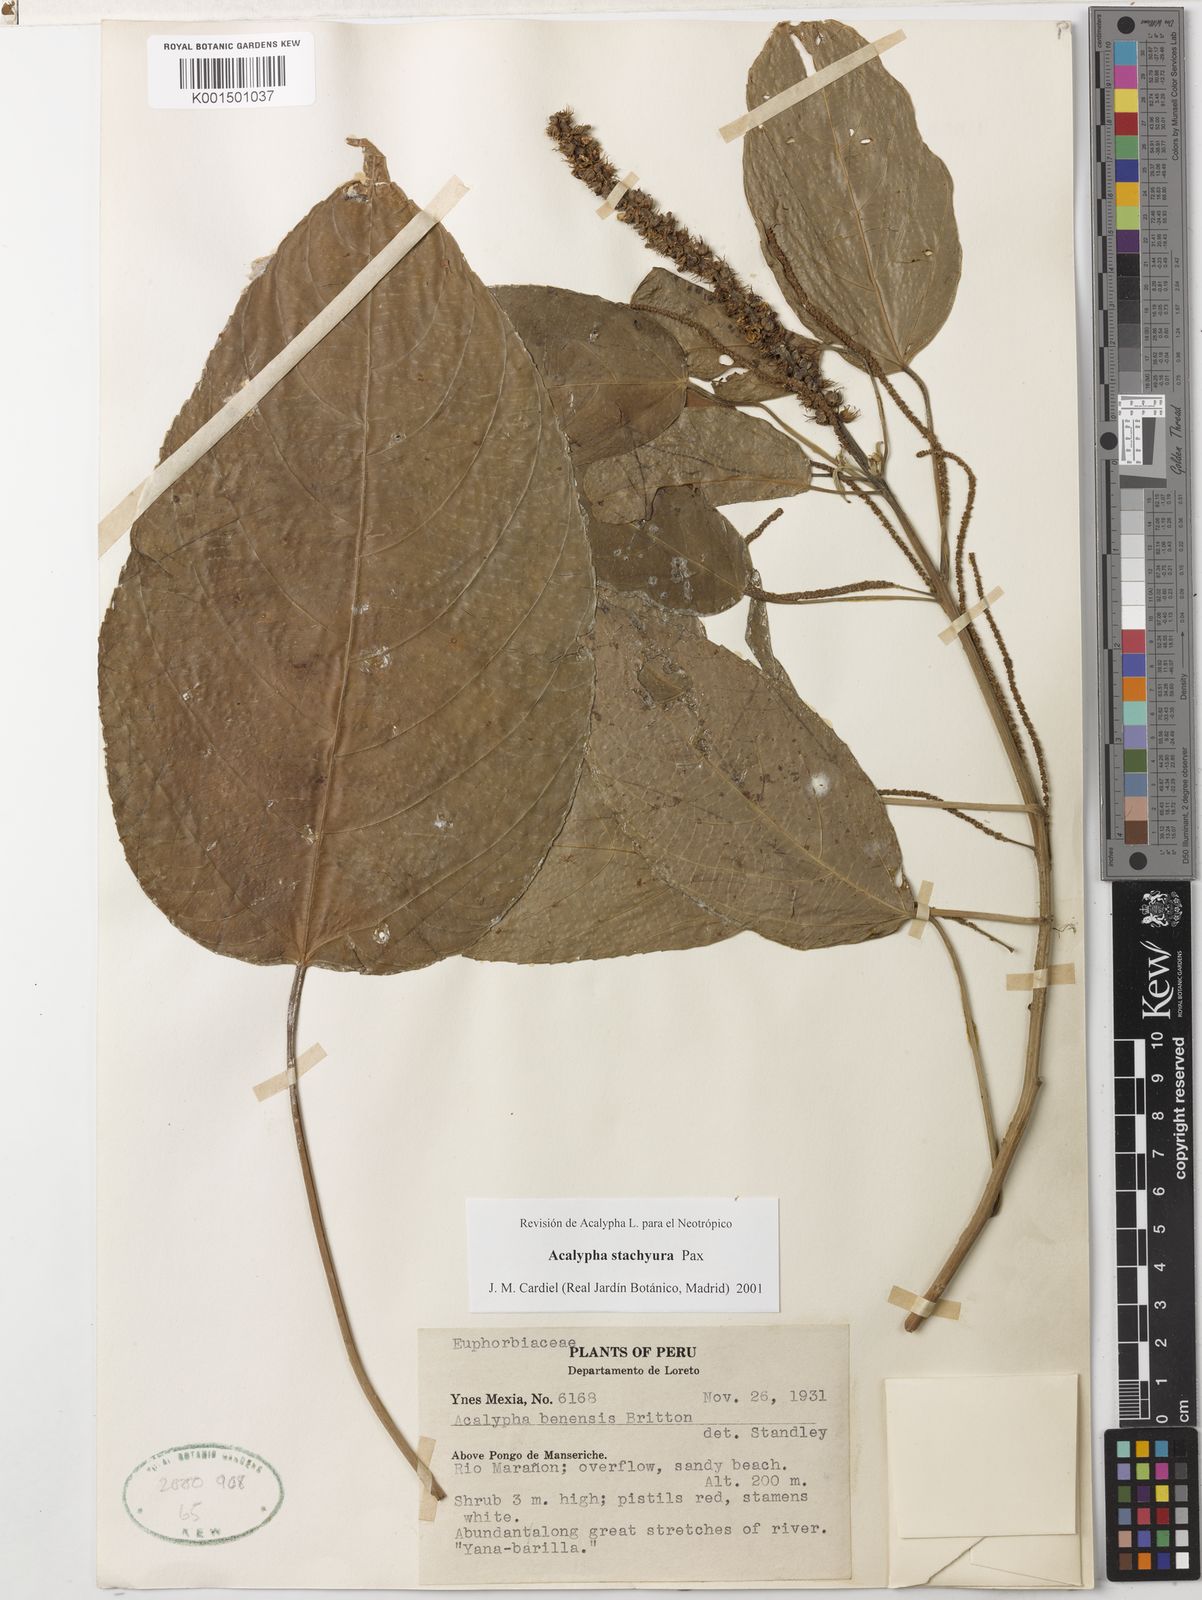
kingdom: Plantae
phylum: Tracheophyta
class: Magnoliopsida
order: Malpighiales
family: Euphorbiaceae
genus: Acalypha
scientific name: Acalypha stachyura
